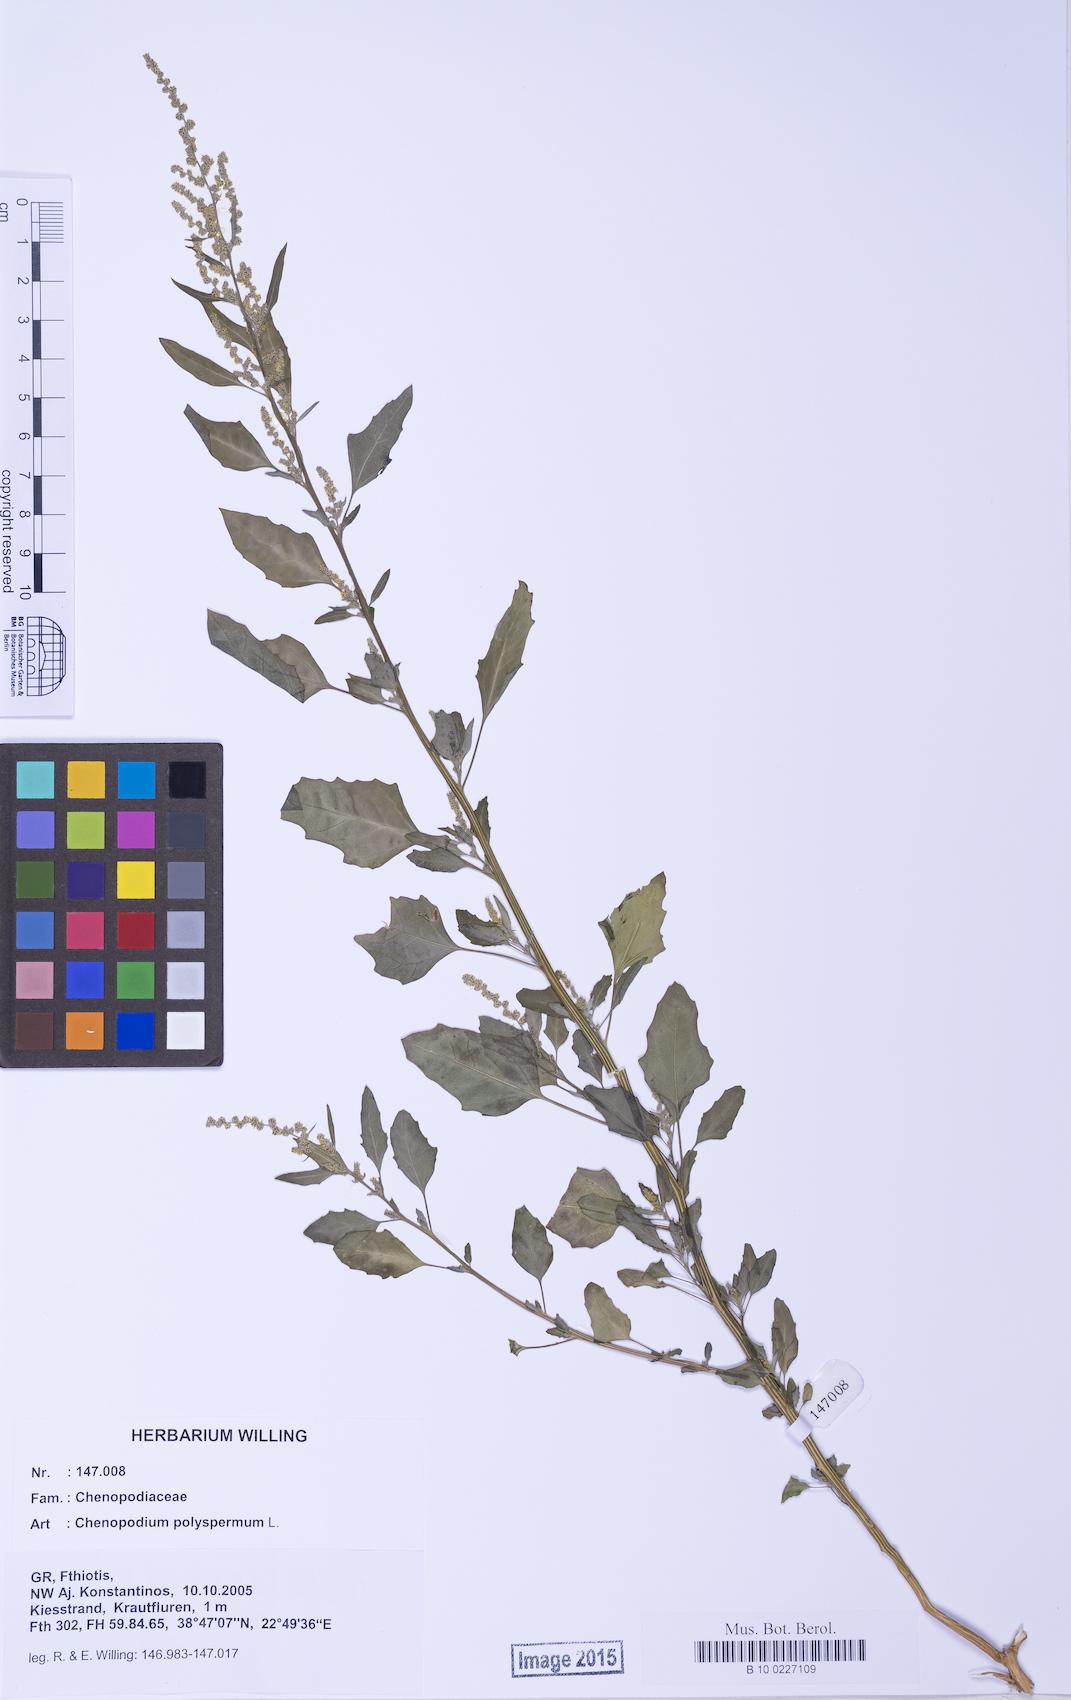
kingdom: Plantae
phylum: Tracheophyta
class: Magnoliopsida
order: Caryophyllales
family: Amaranthaceae
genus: Chenopodium
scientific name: Chenopodium album
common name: Fat-hen
